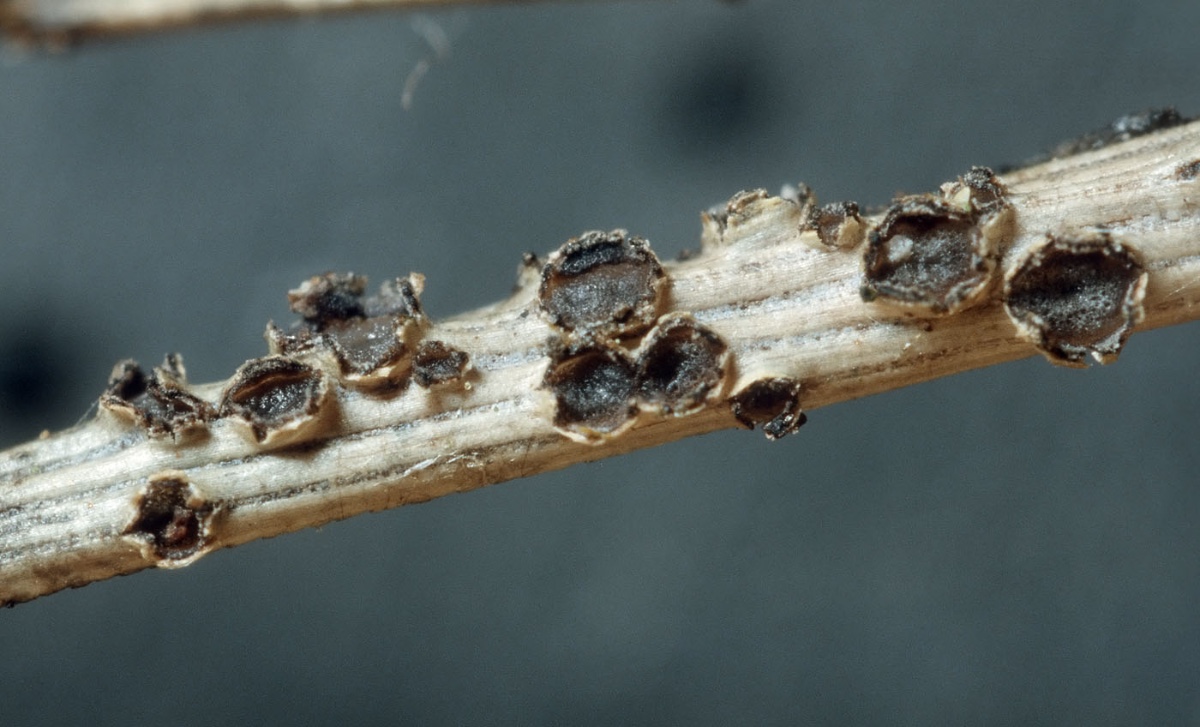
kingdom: Fungi
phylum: Ascomycota
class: Leotiomycetes
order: Phacidiales
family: Phacidiaceae
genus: Phacidium
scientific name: Phacidium lacerum
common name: nåle-tandskive
